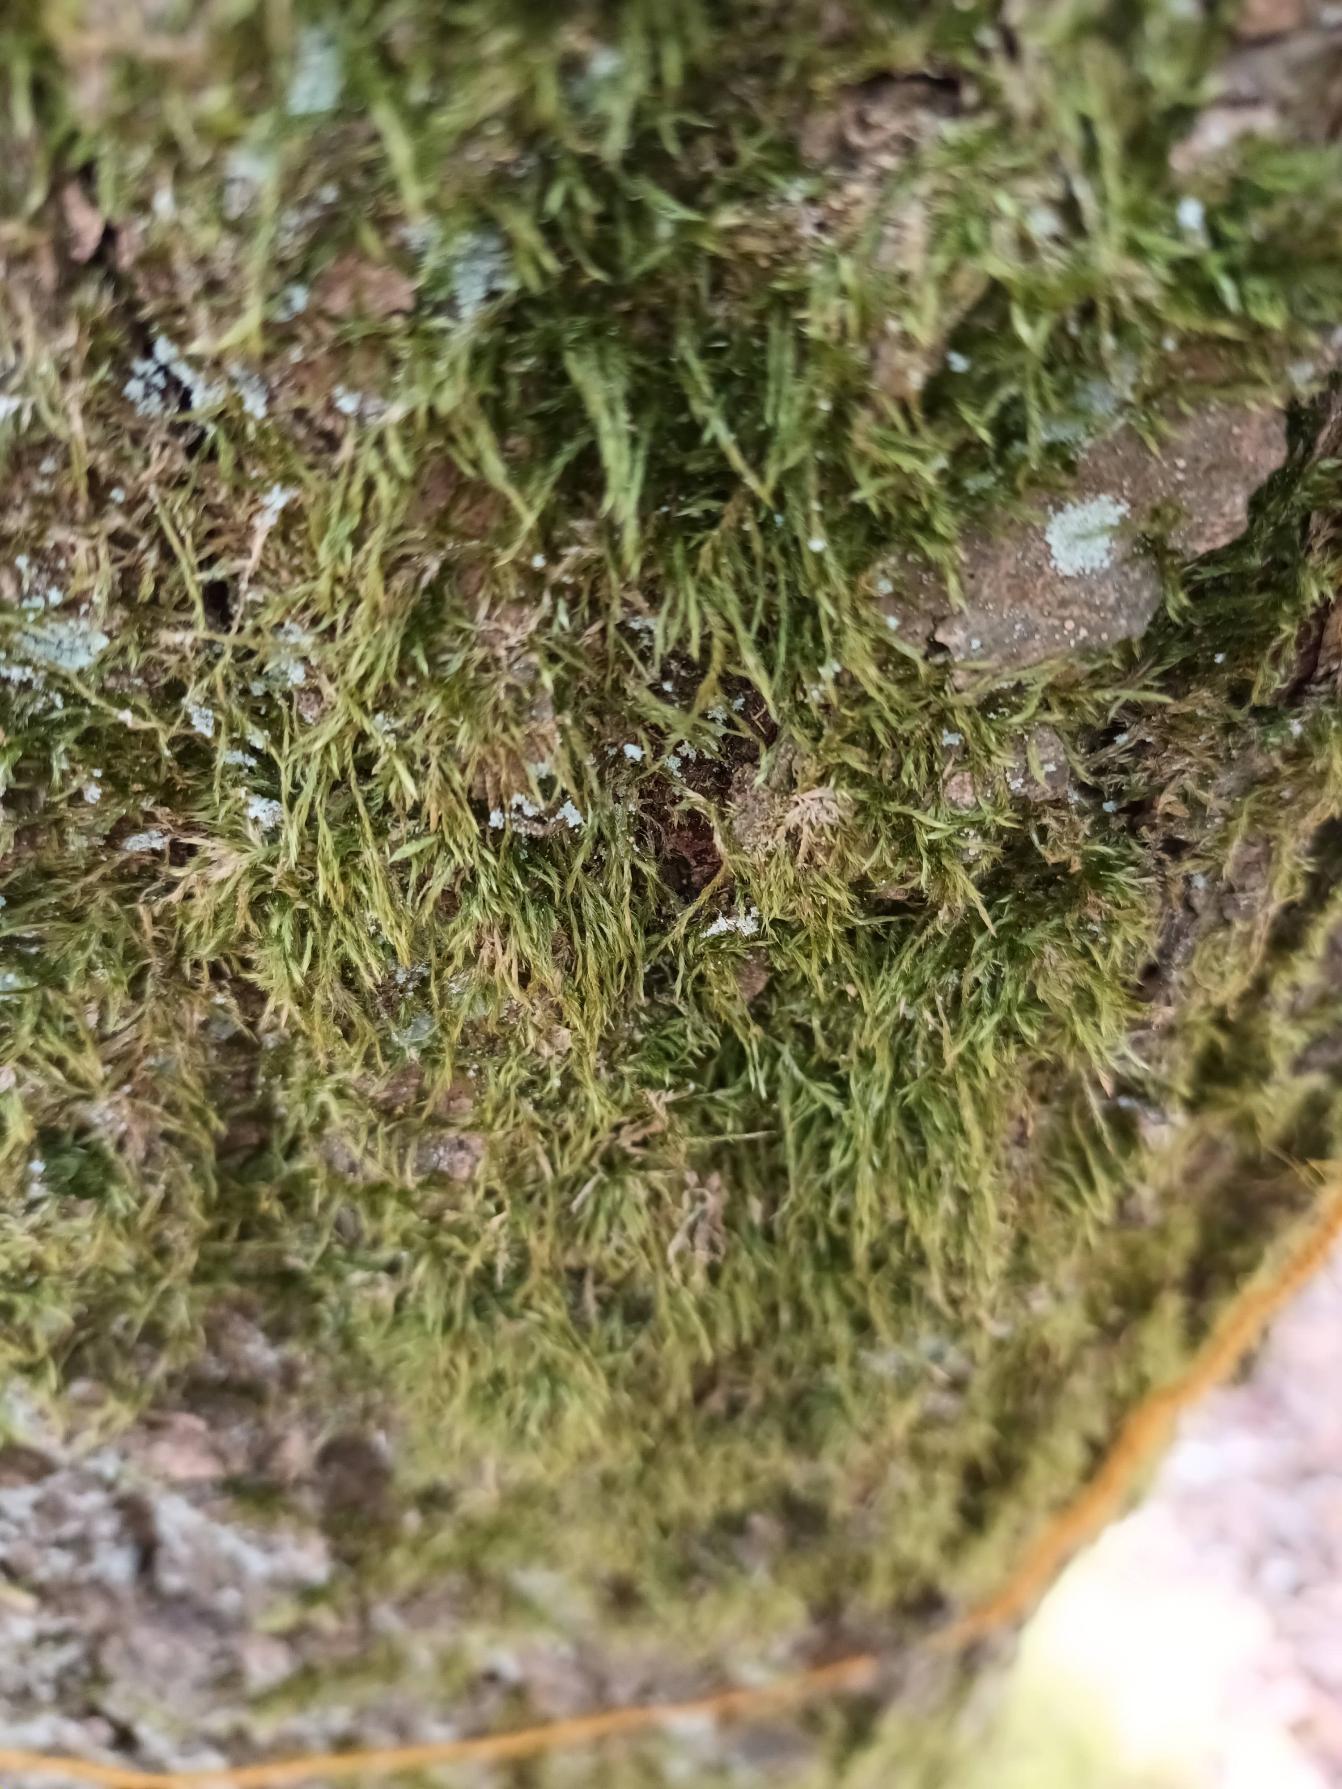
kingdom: Plantae
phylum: Bryophyta
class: Bryopsida
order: Hypnales
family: Hypnaceae
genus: Hypnum
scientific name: Hypnum
